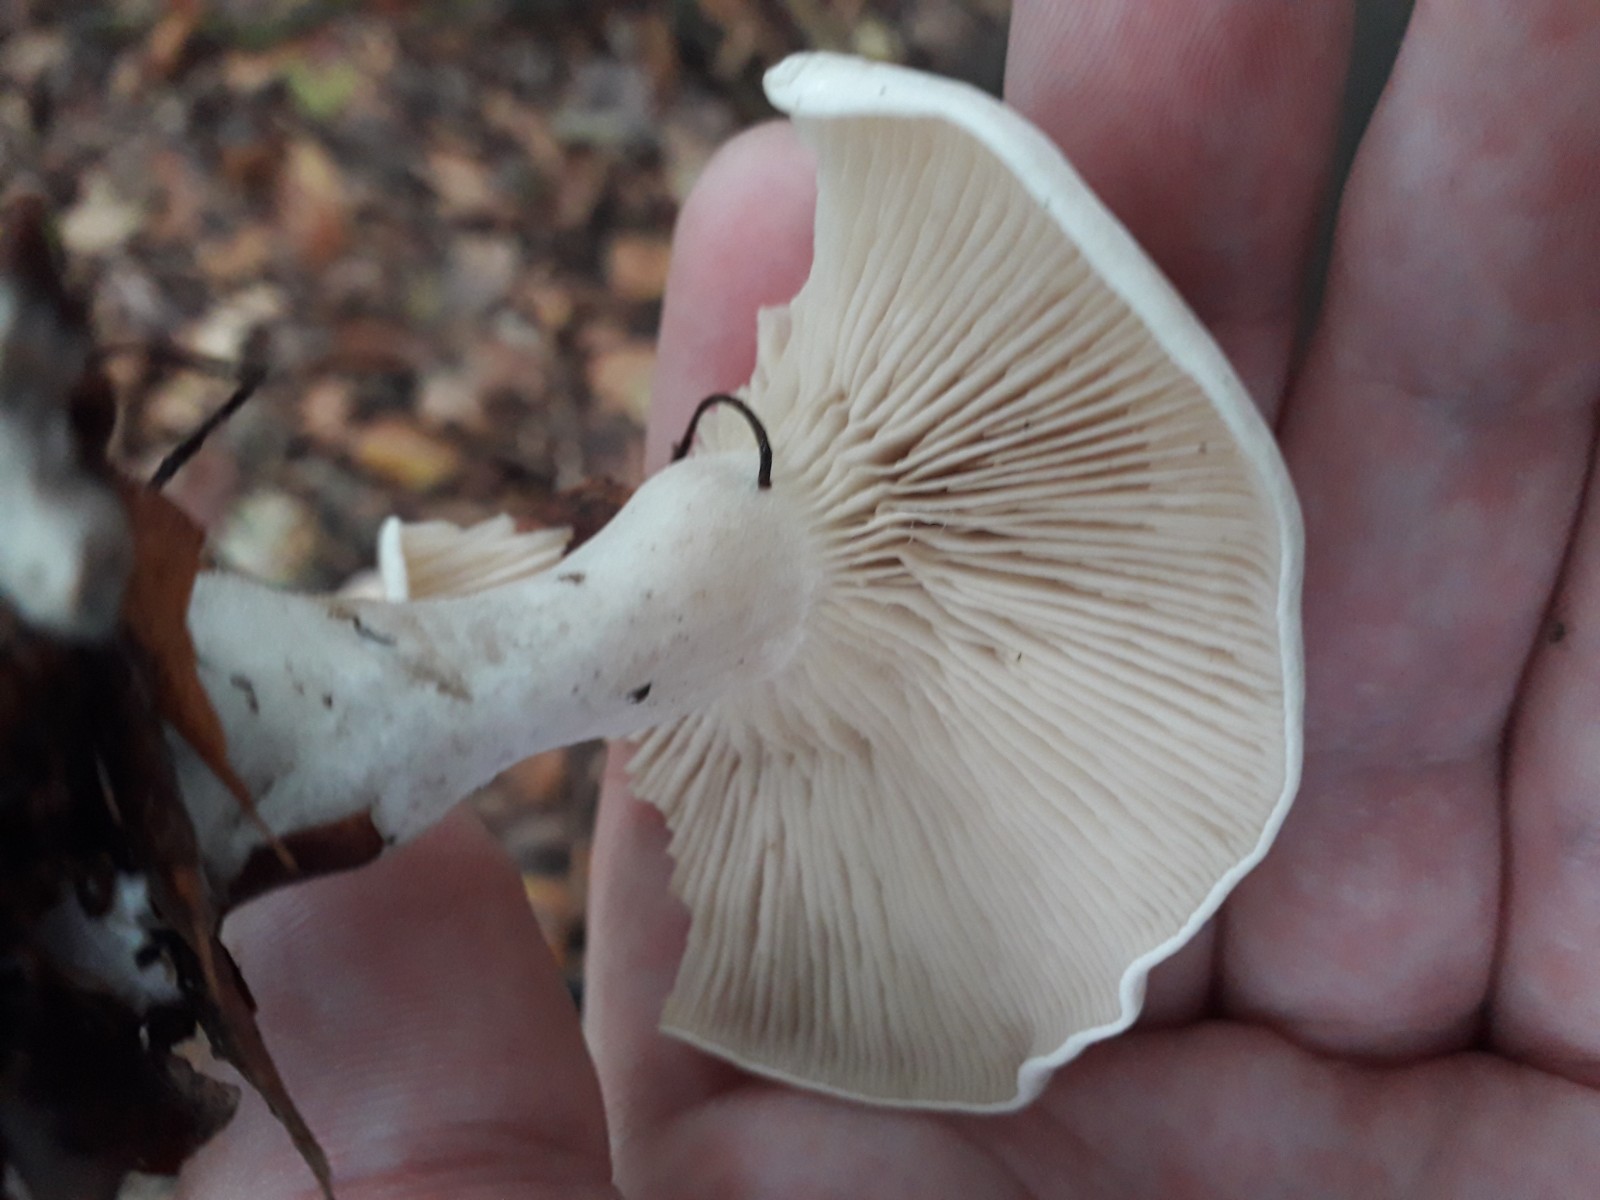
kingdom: Fungi
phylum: Basidiomycota
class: Agaricomycetes
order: Agaricales
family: Tricholomataceae
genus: Clitocybe
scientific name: Clitocybe phyllophila
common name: løv-tragthat
